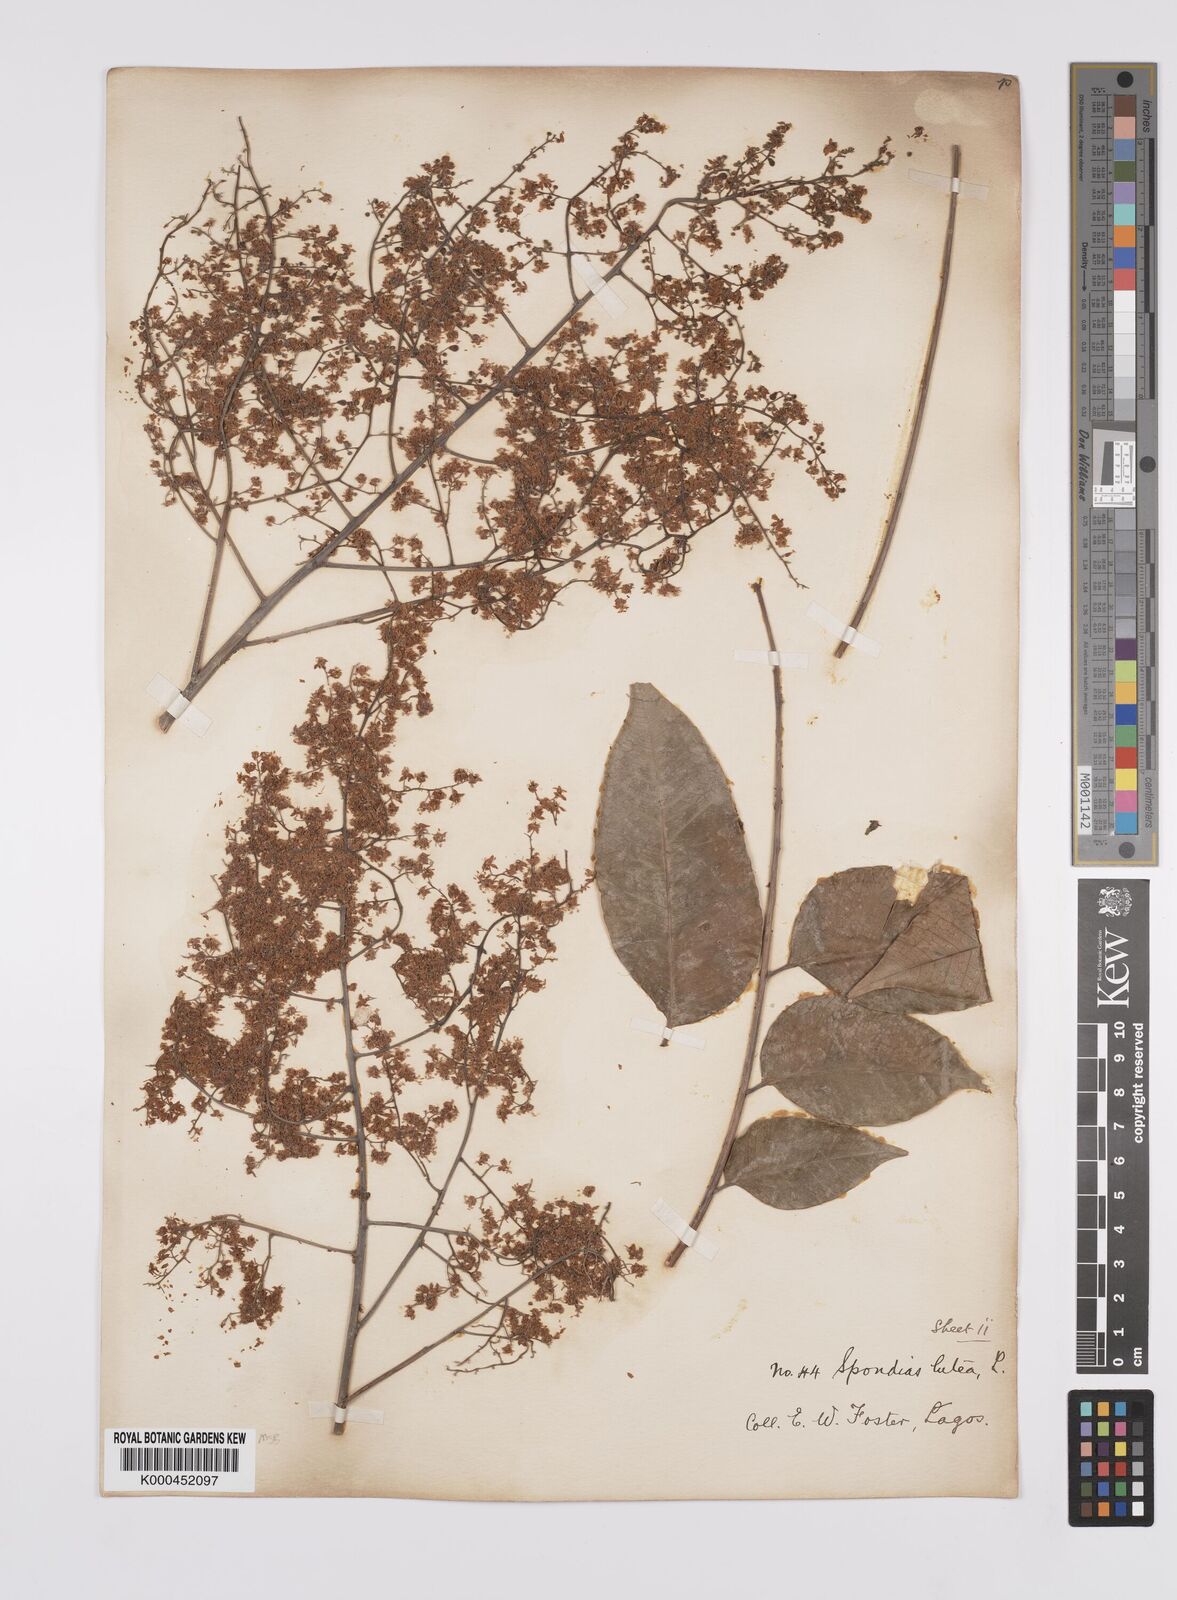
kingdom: Plantae
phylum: Tracheophyta
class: Magnoliopsida
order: Sapindales
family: Anacardiaceae
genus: Spondias
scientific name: Spondias mombin
